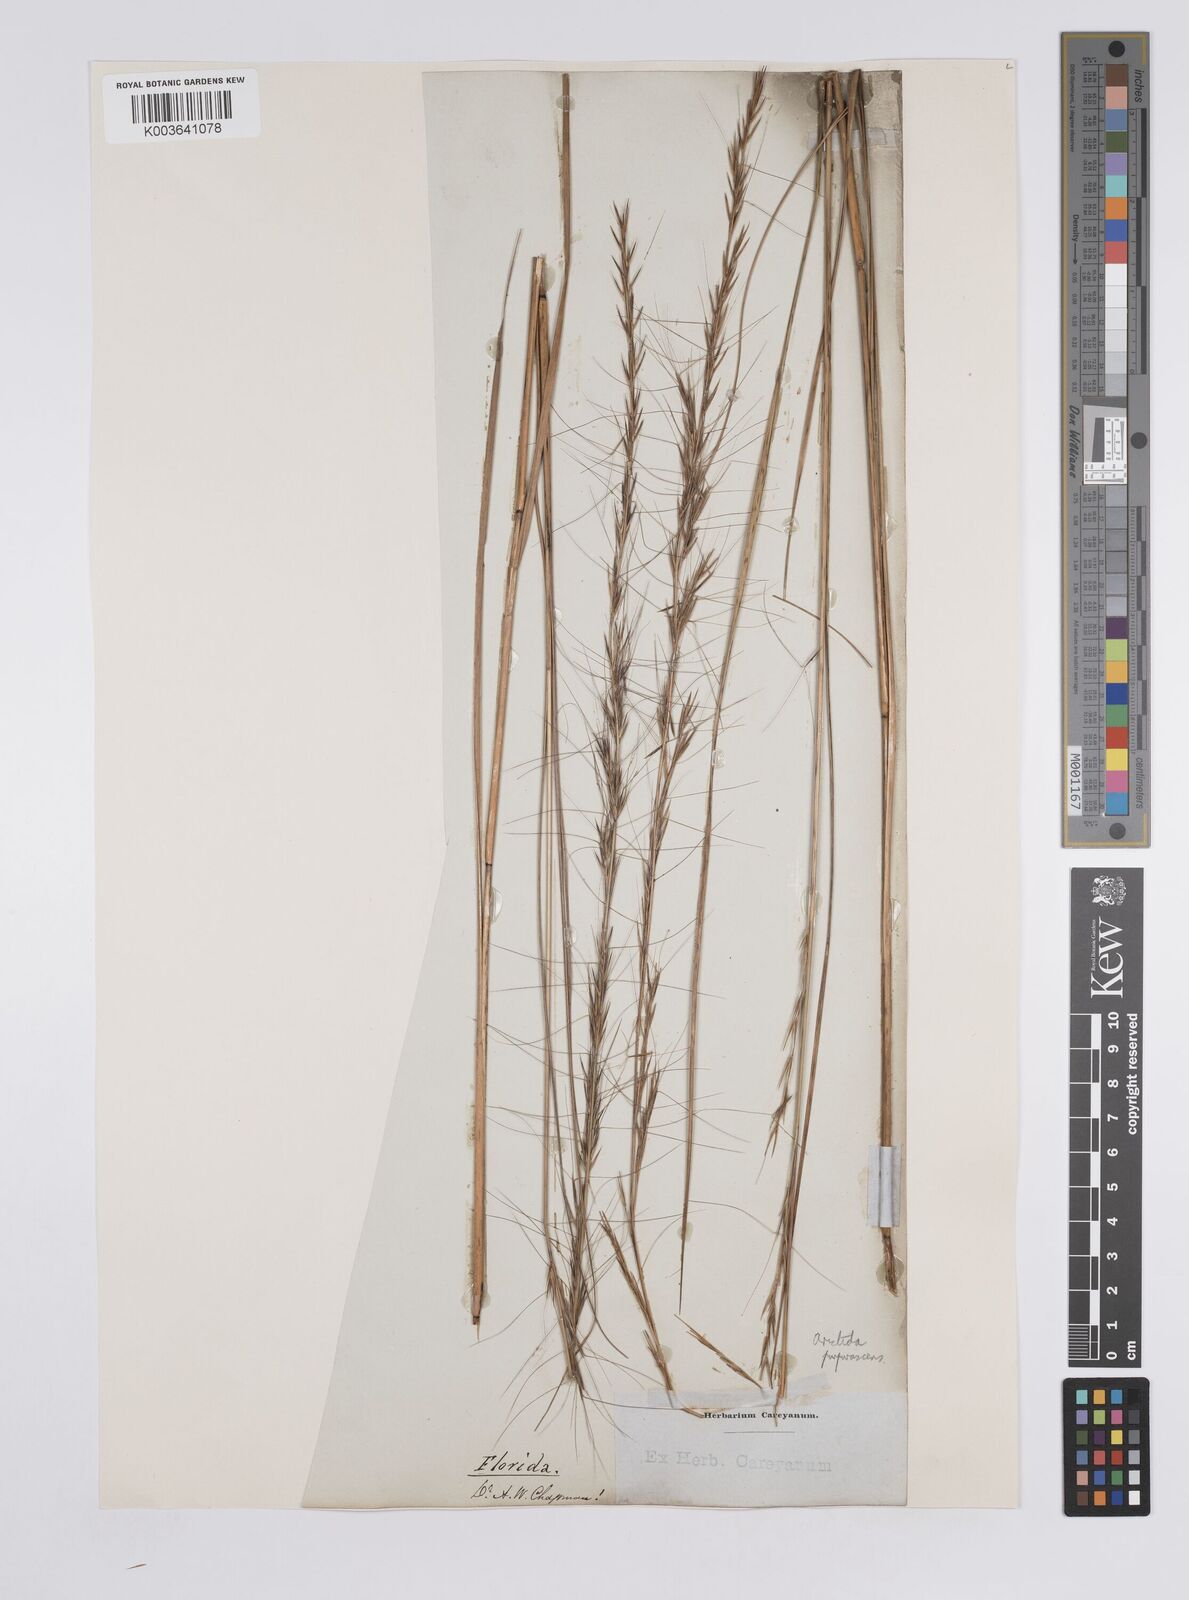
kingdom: Plantae
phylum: Tracheophyta
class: Liliopsida
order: Poales
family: Poaceae
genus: Aristida
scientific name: Aristida purpurascens
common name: Arrow-feather
